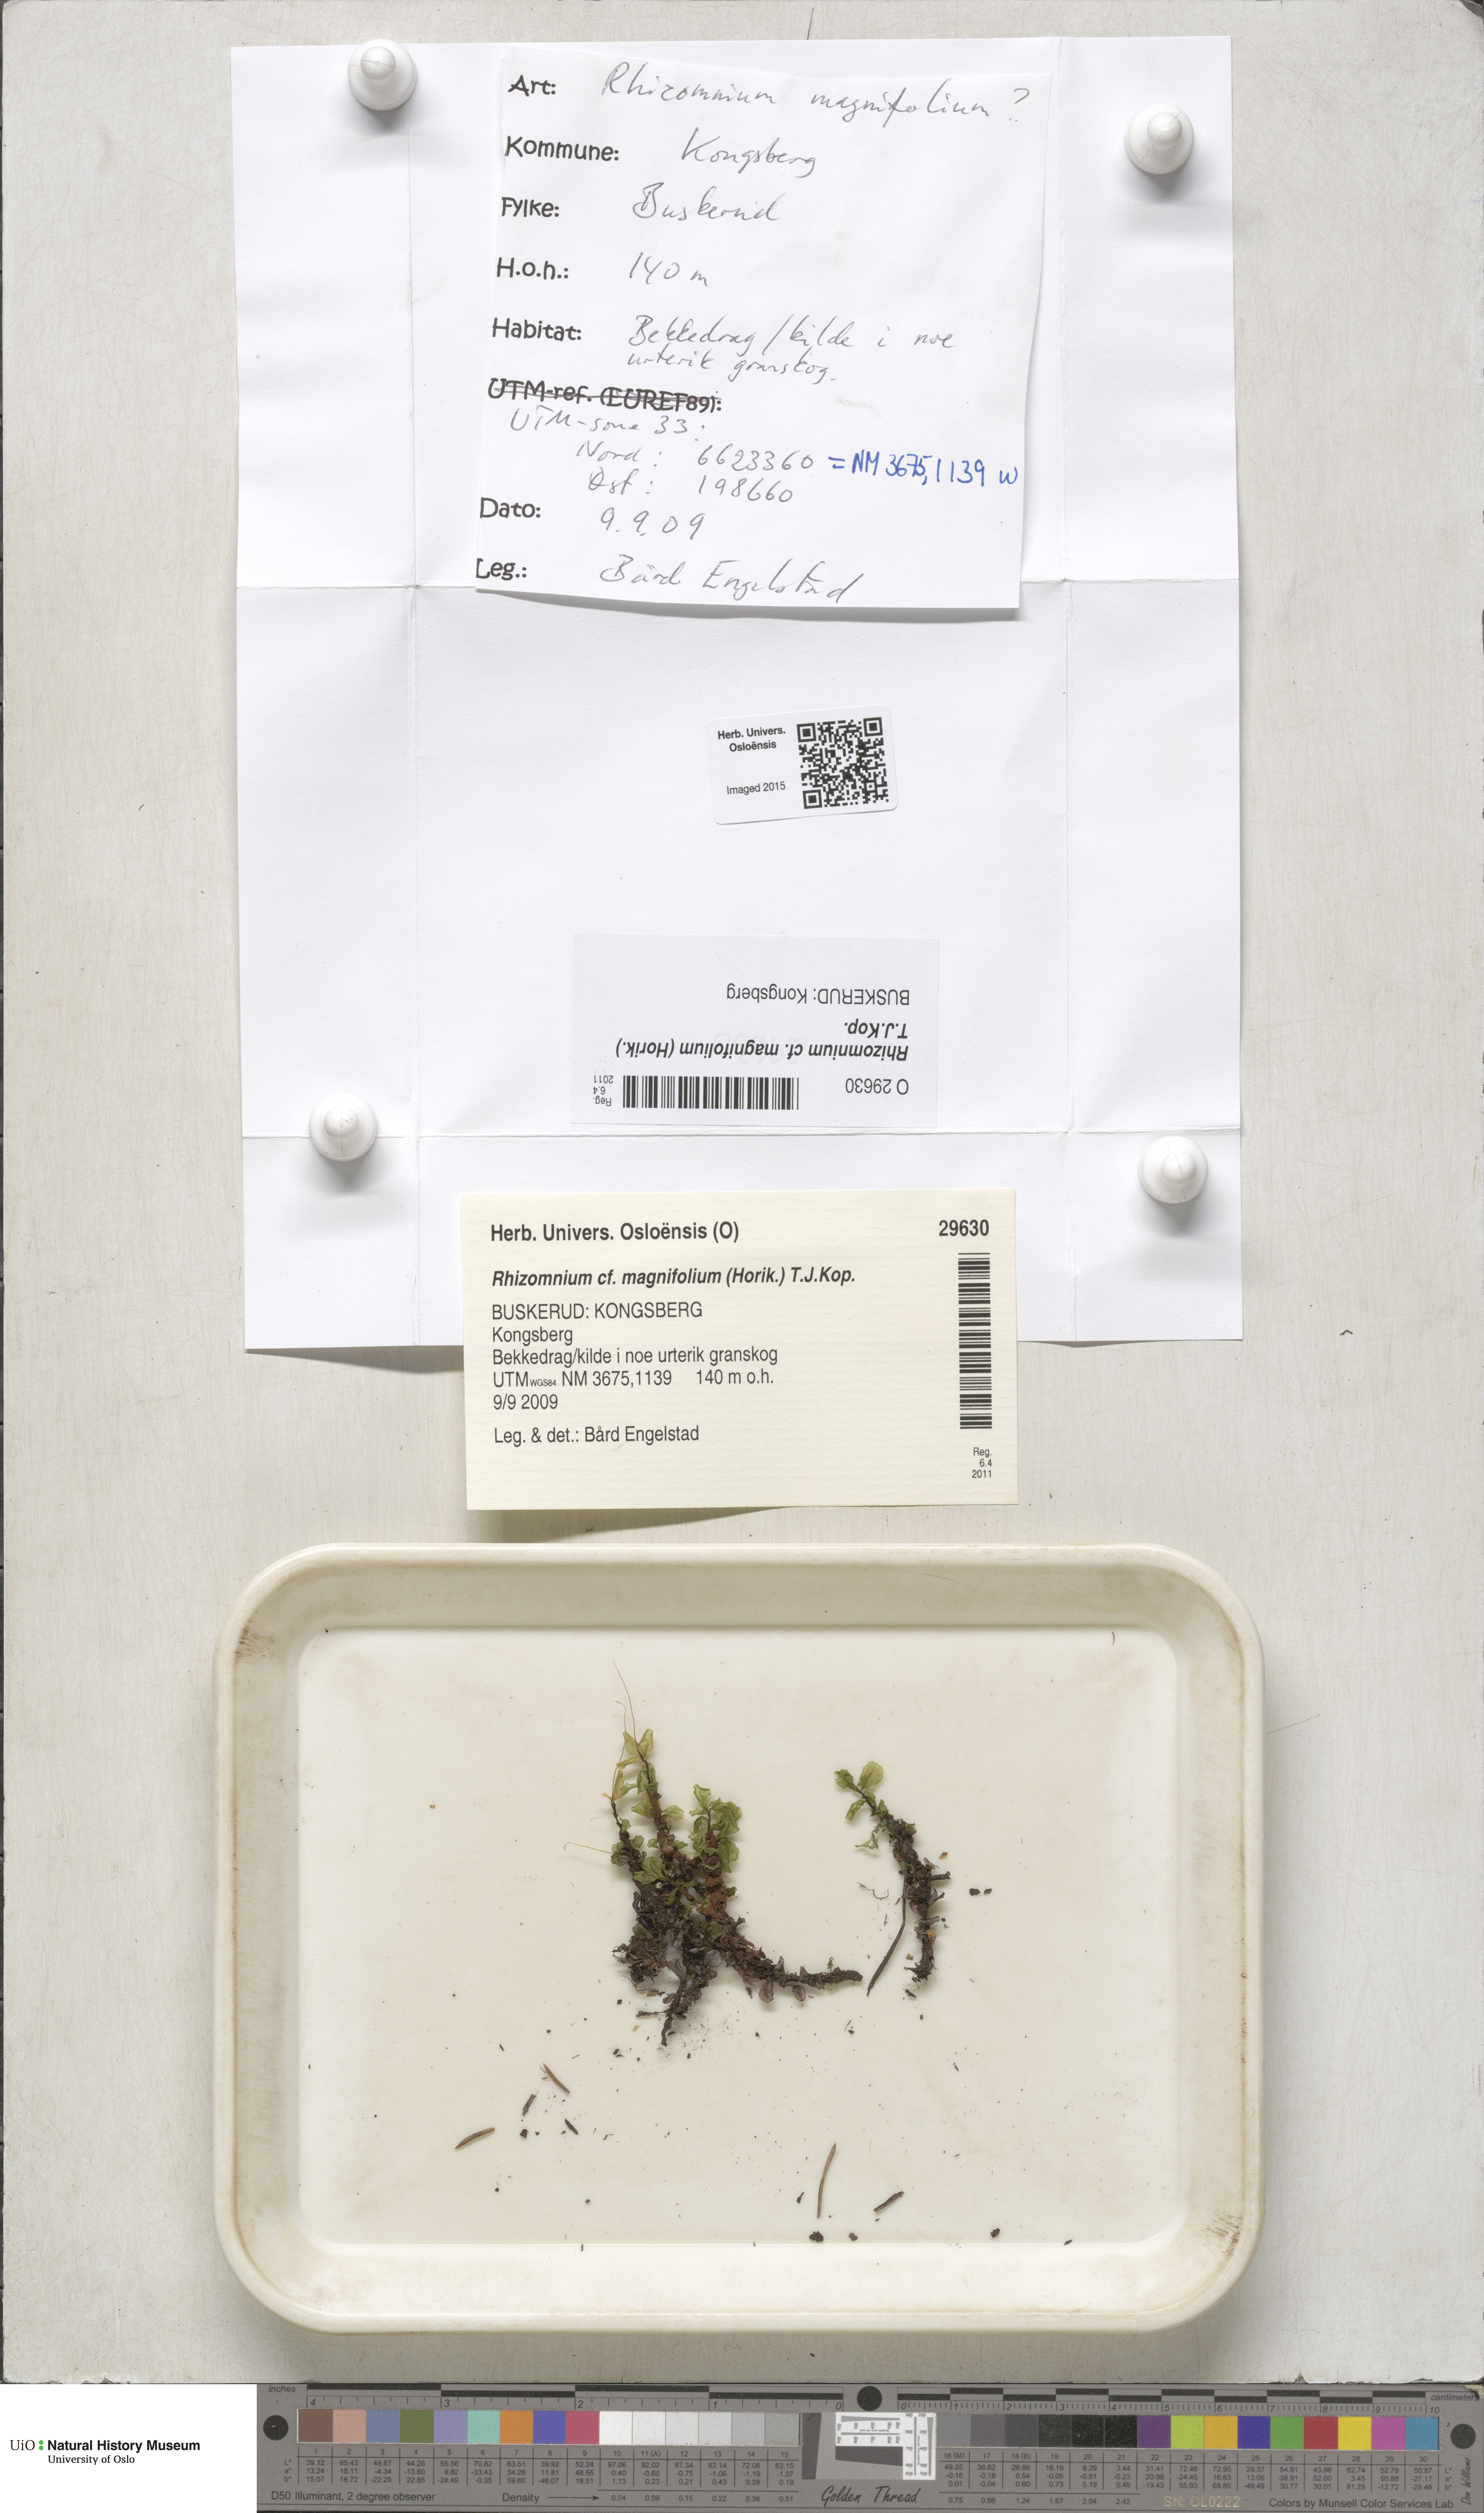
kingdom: Plantae
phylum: Bryophyta
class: Bryopsida
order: Bryales
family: Mniaceae
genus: Rhizomnium
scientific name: Rhizomnium magnifolium
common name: Large-leaved leafy moss
